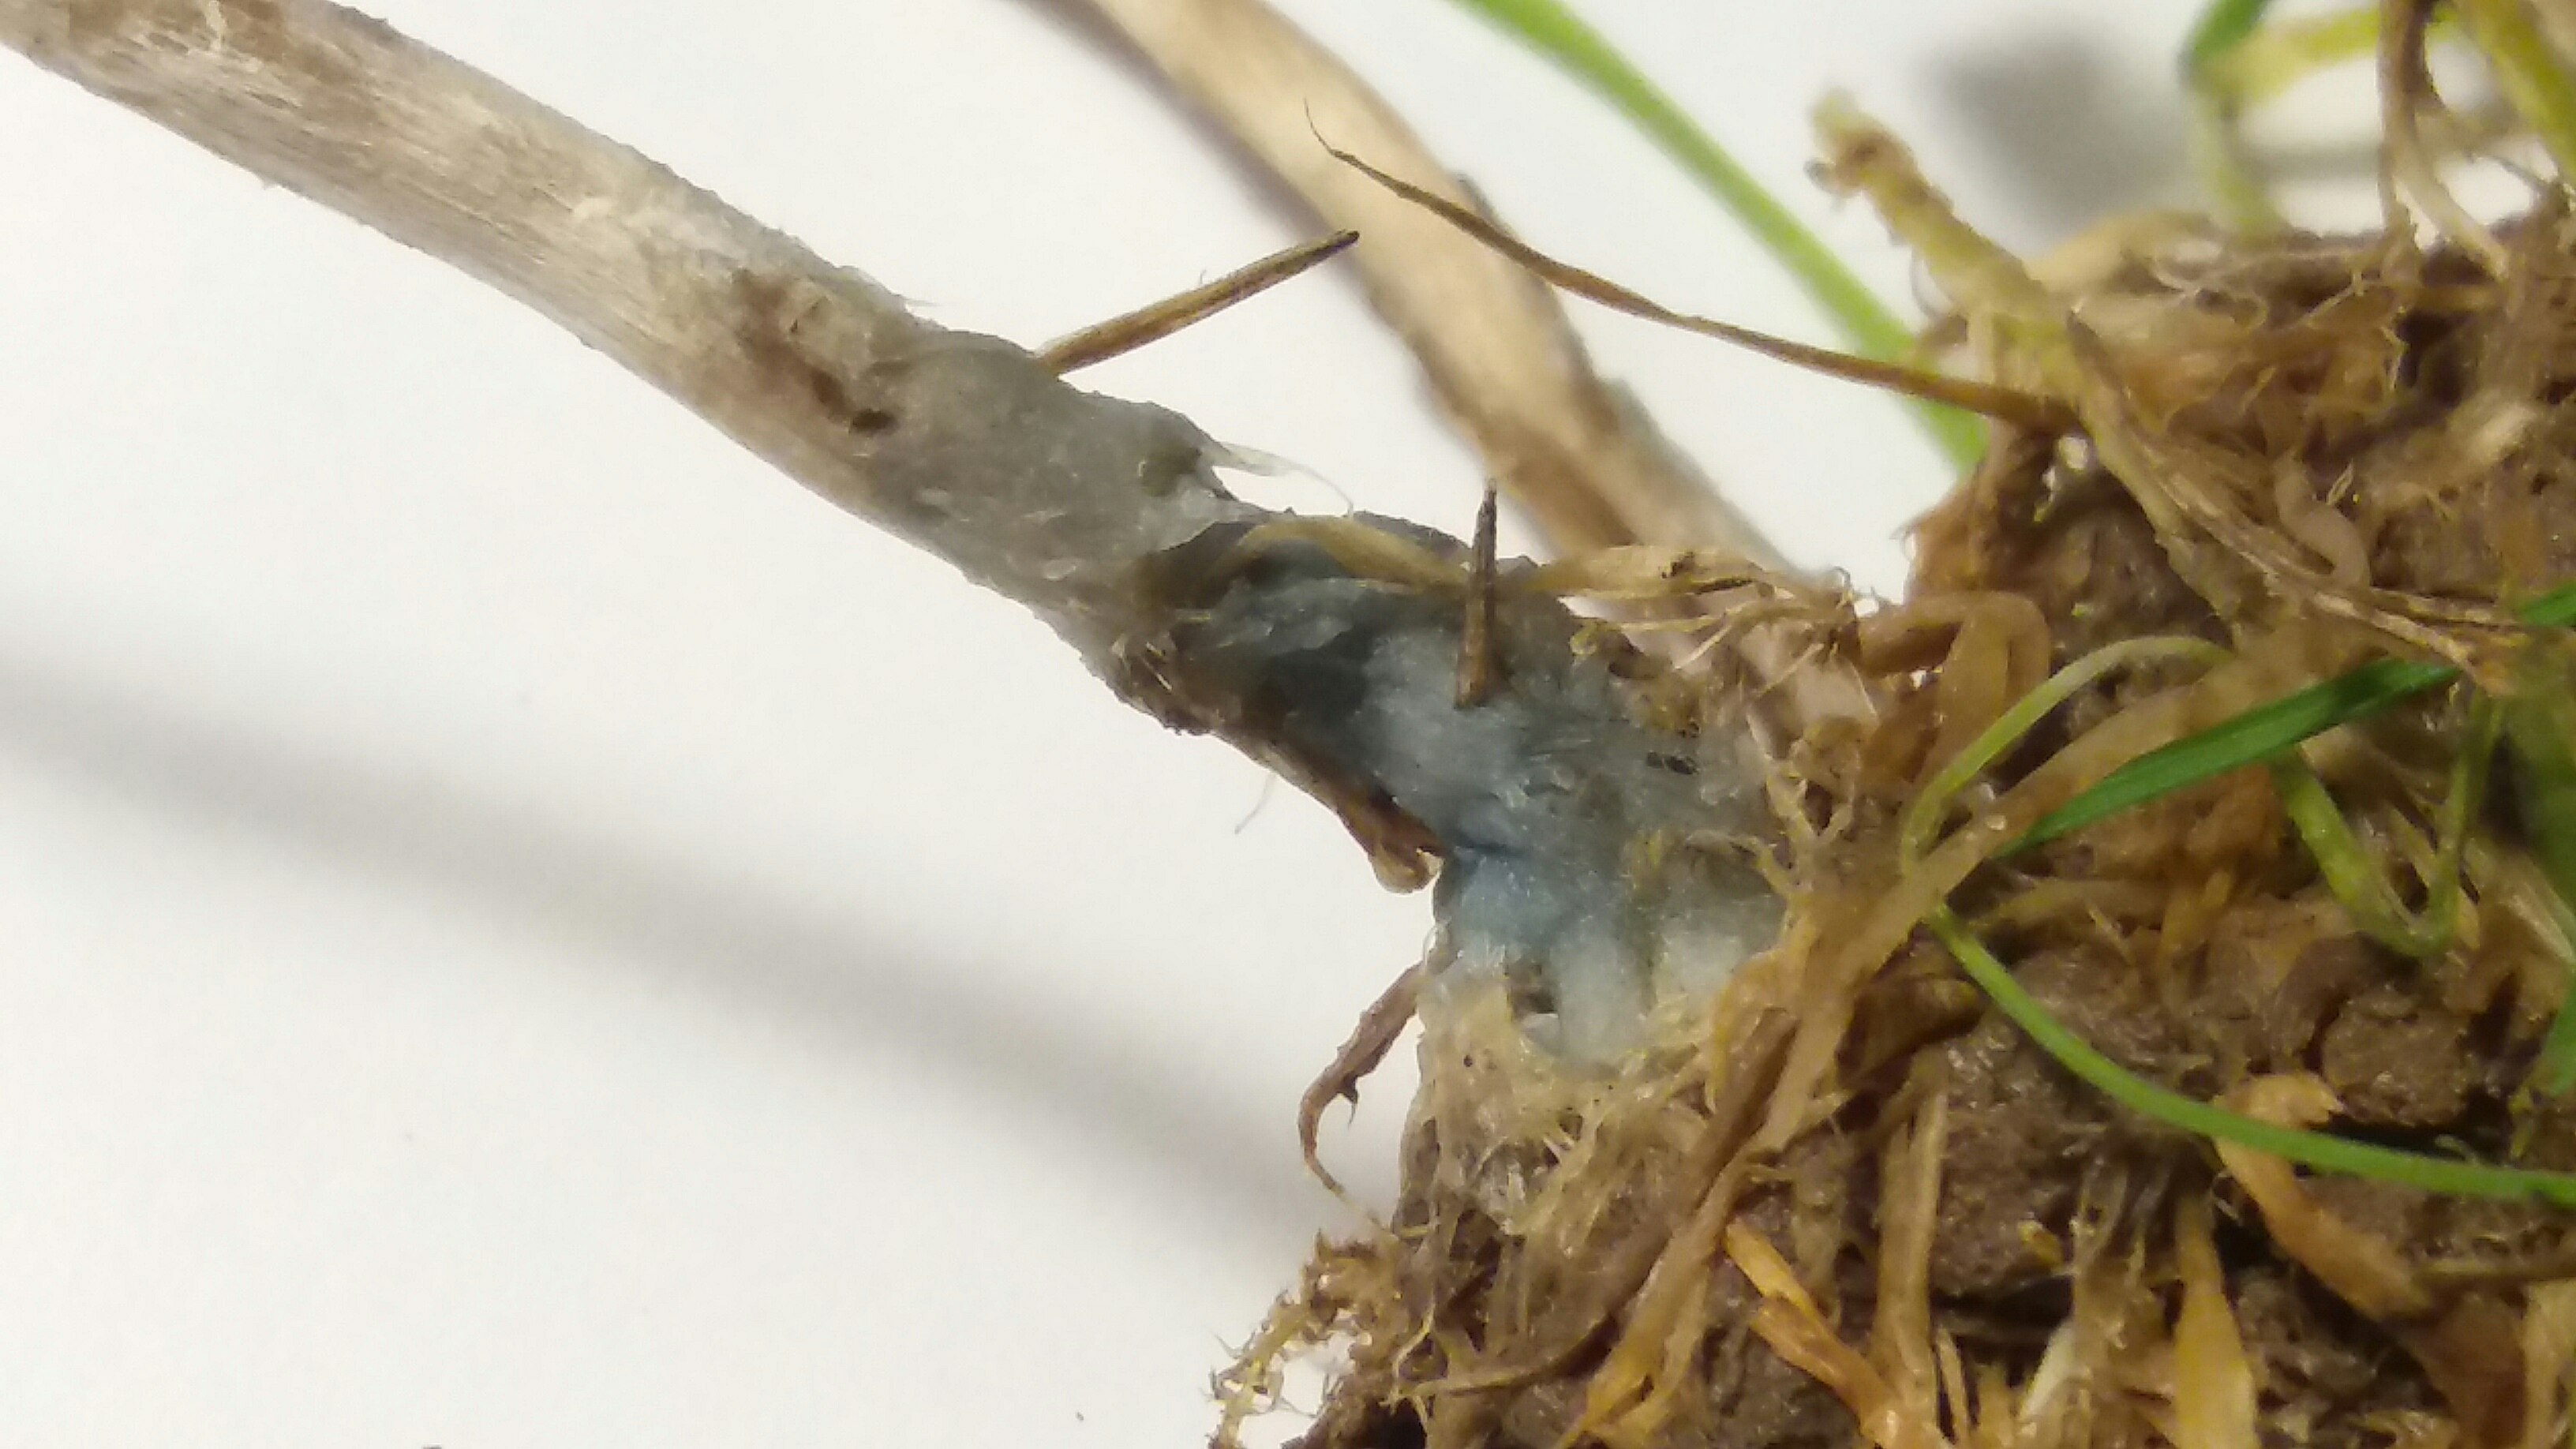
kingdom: Fungi
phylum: Basidiomycota
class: Agaricomycetes
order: Agaricales
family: Hymenogastraceae
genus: Psilocybe
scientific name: Psilocybe semilanceata
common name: spids nøgenhat
